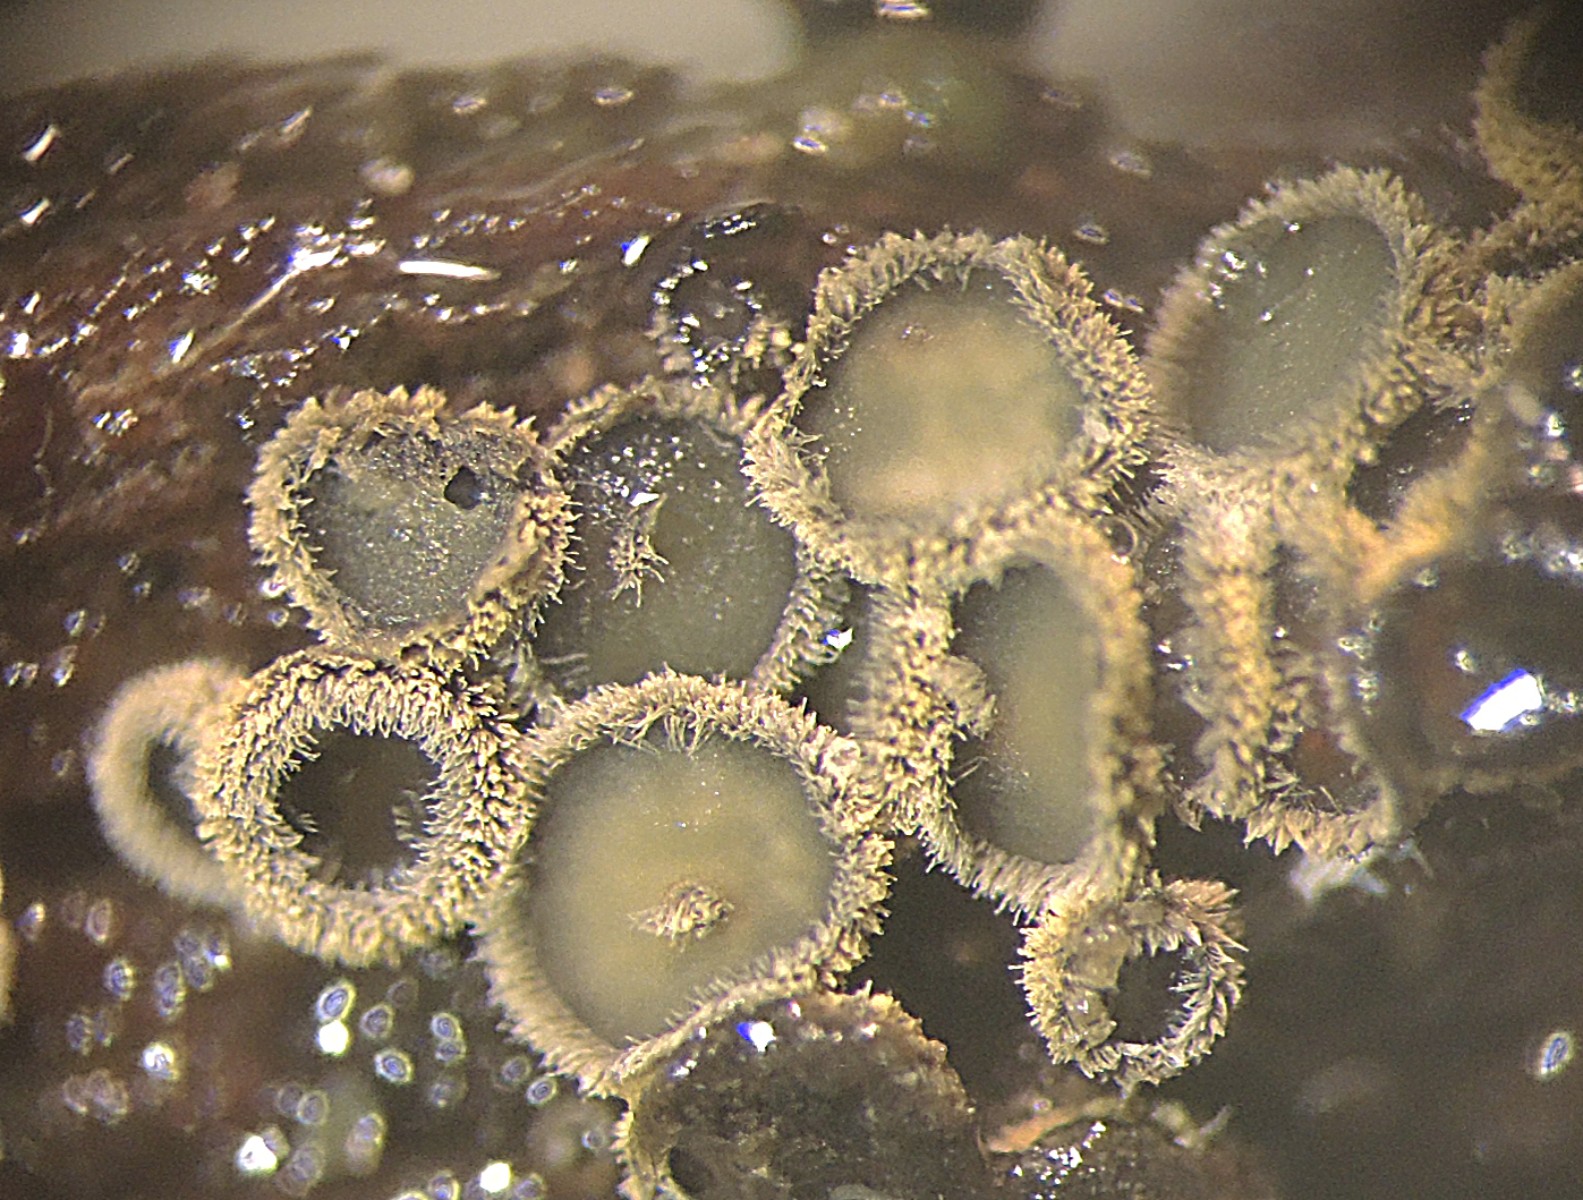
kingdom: Fungi
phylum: Ascomycota
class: Leotiomycetes
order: Helotiales
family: Lachnaceae
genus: Neodasyscypha
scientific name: Neodasyscypha cerina
